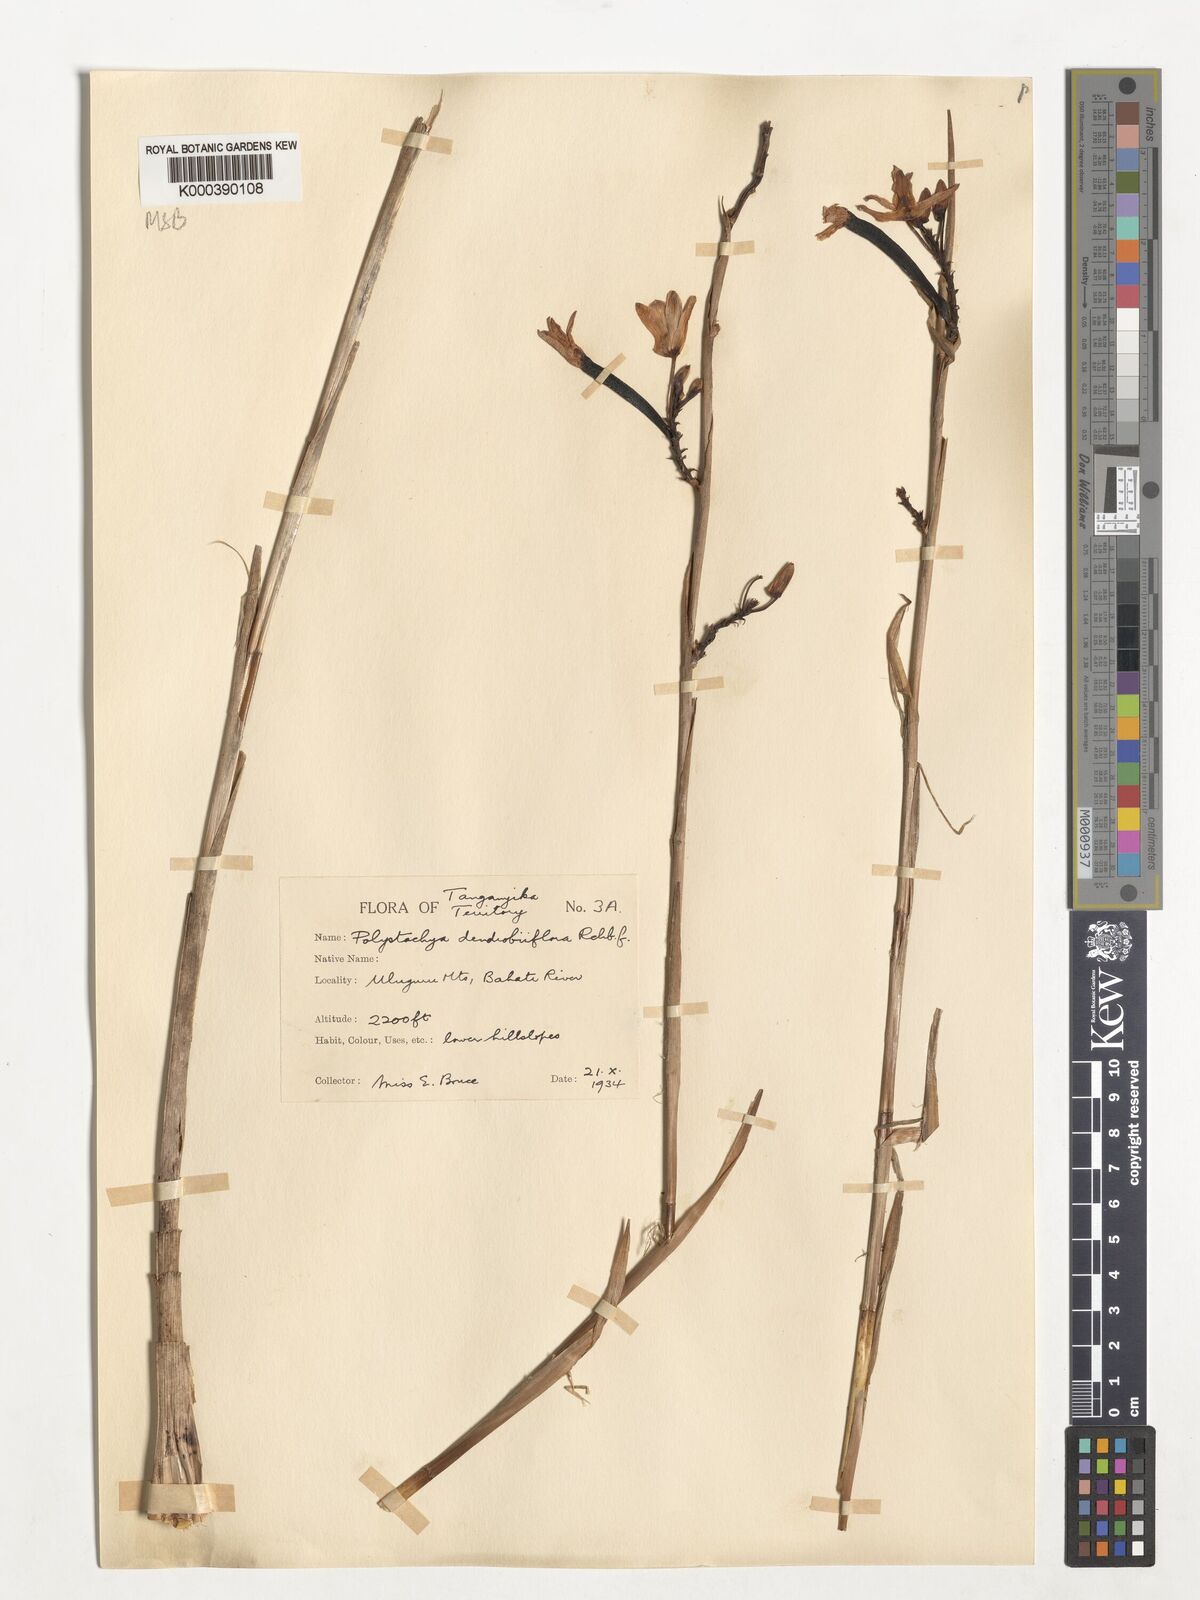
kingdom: Plantae
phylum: Tracheophyta
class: Liliopsida
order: Asparagales
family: Orchidaceae
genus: Polystachya
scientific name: Polystachya longiscapa
